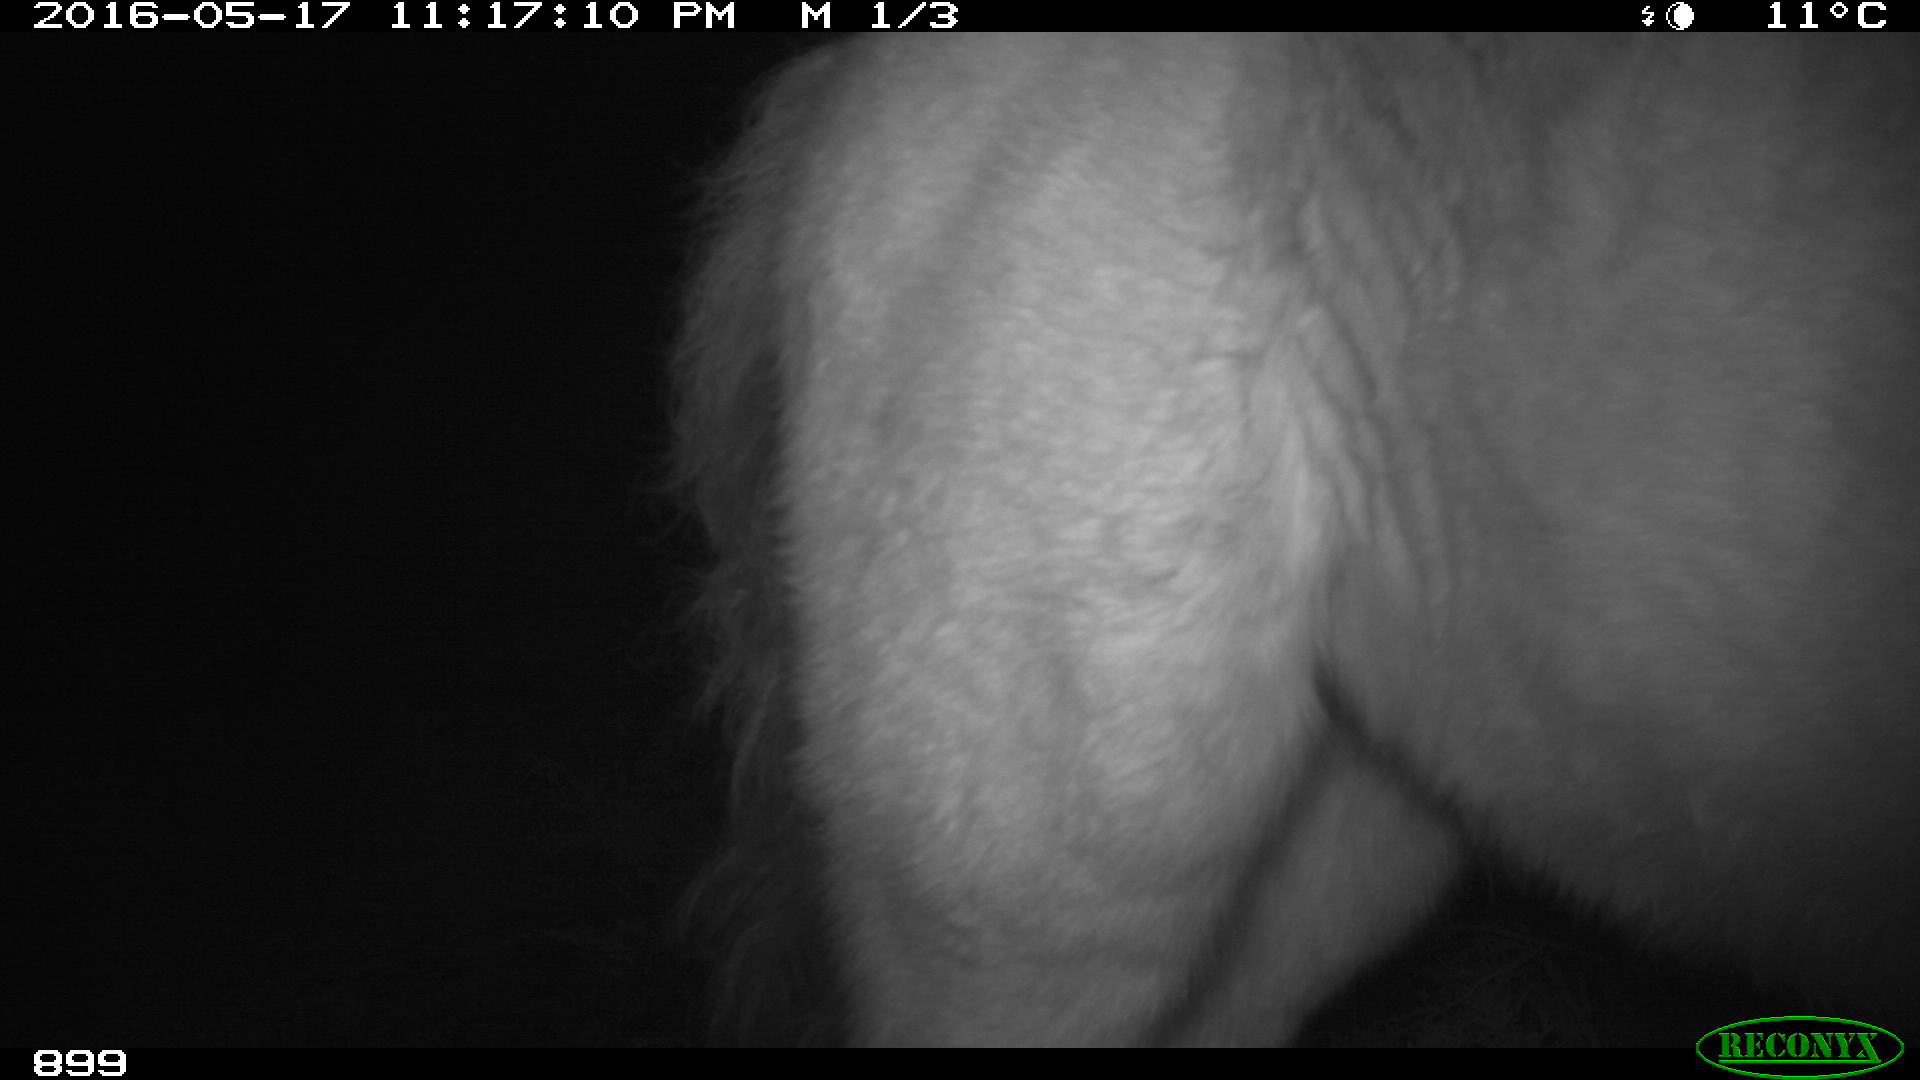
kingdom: Animalia
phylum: Chordata
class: Mammalia
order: Perissodactyla
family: Equidae
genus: Equus
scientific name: Equus caballus
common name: Horse
